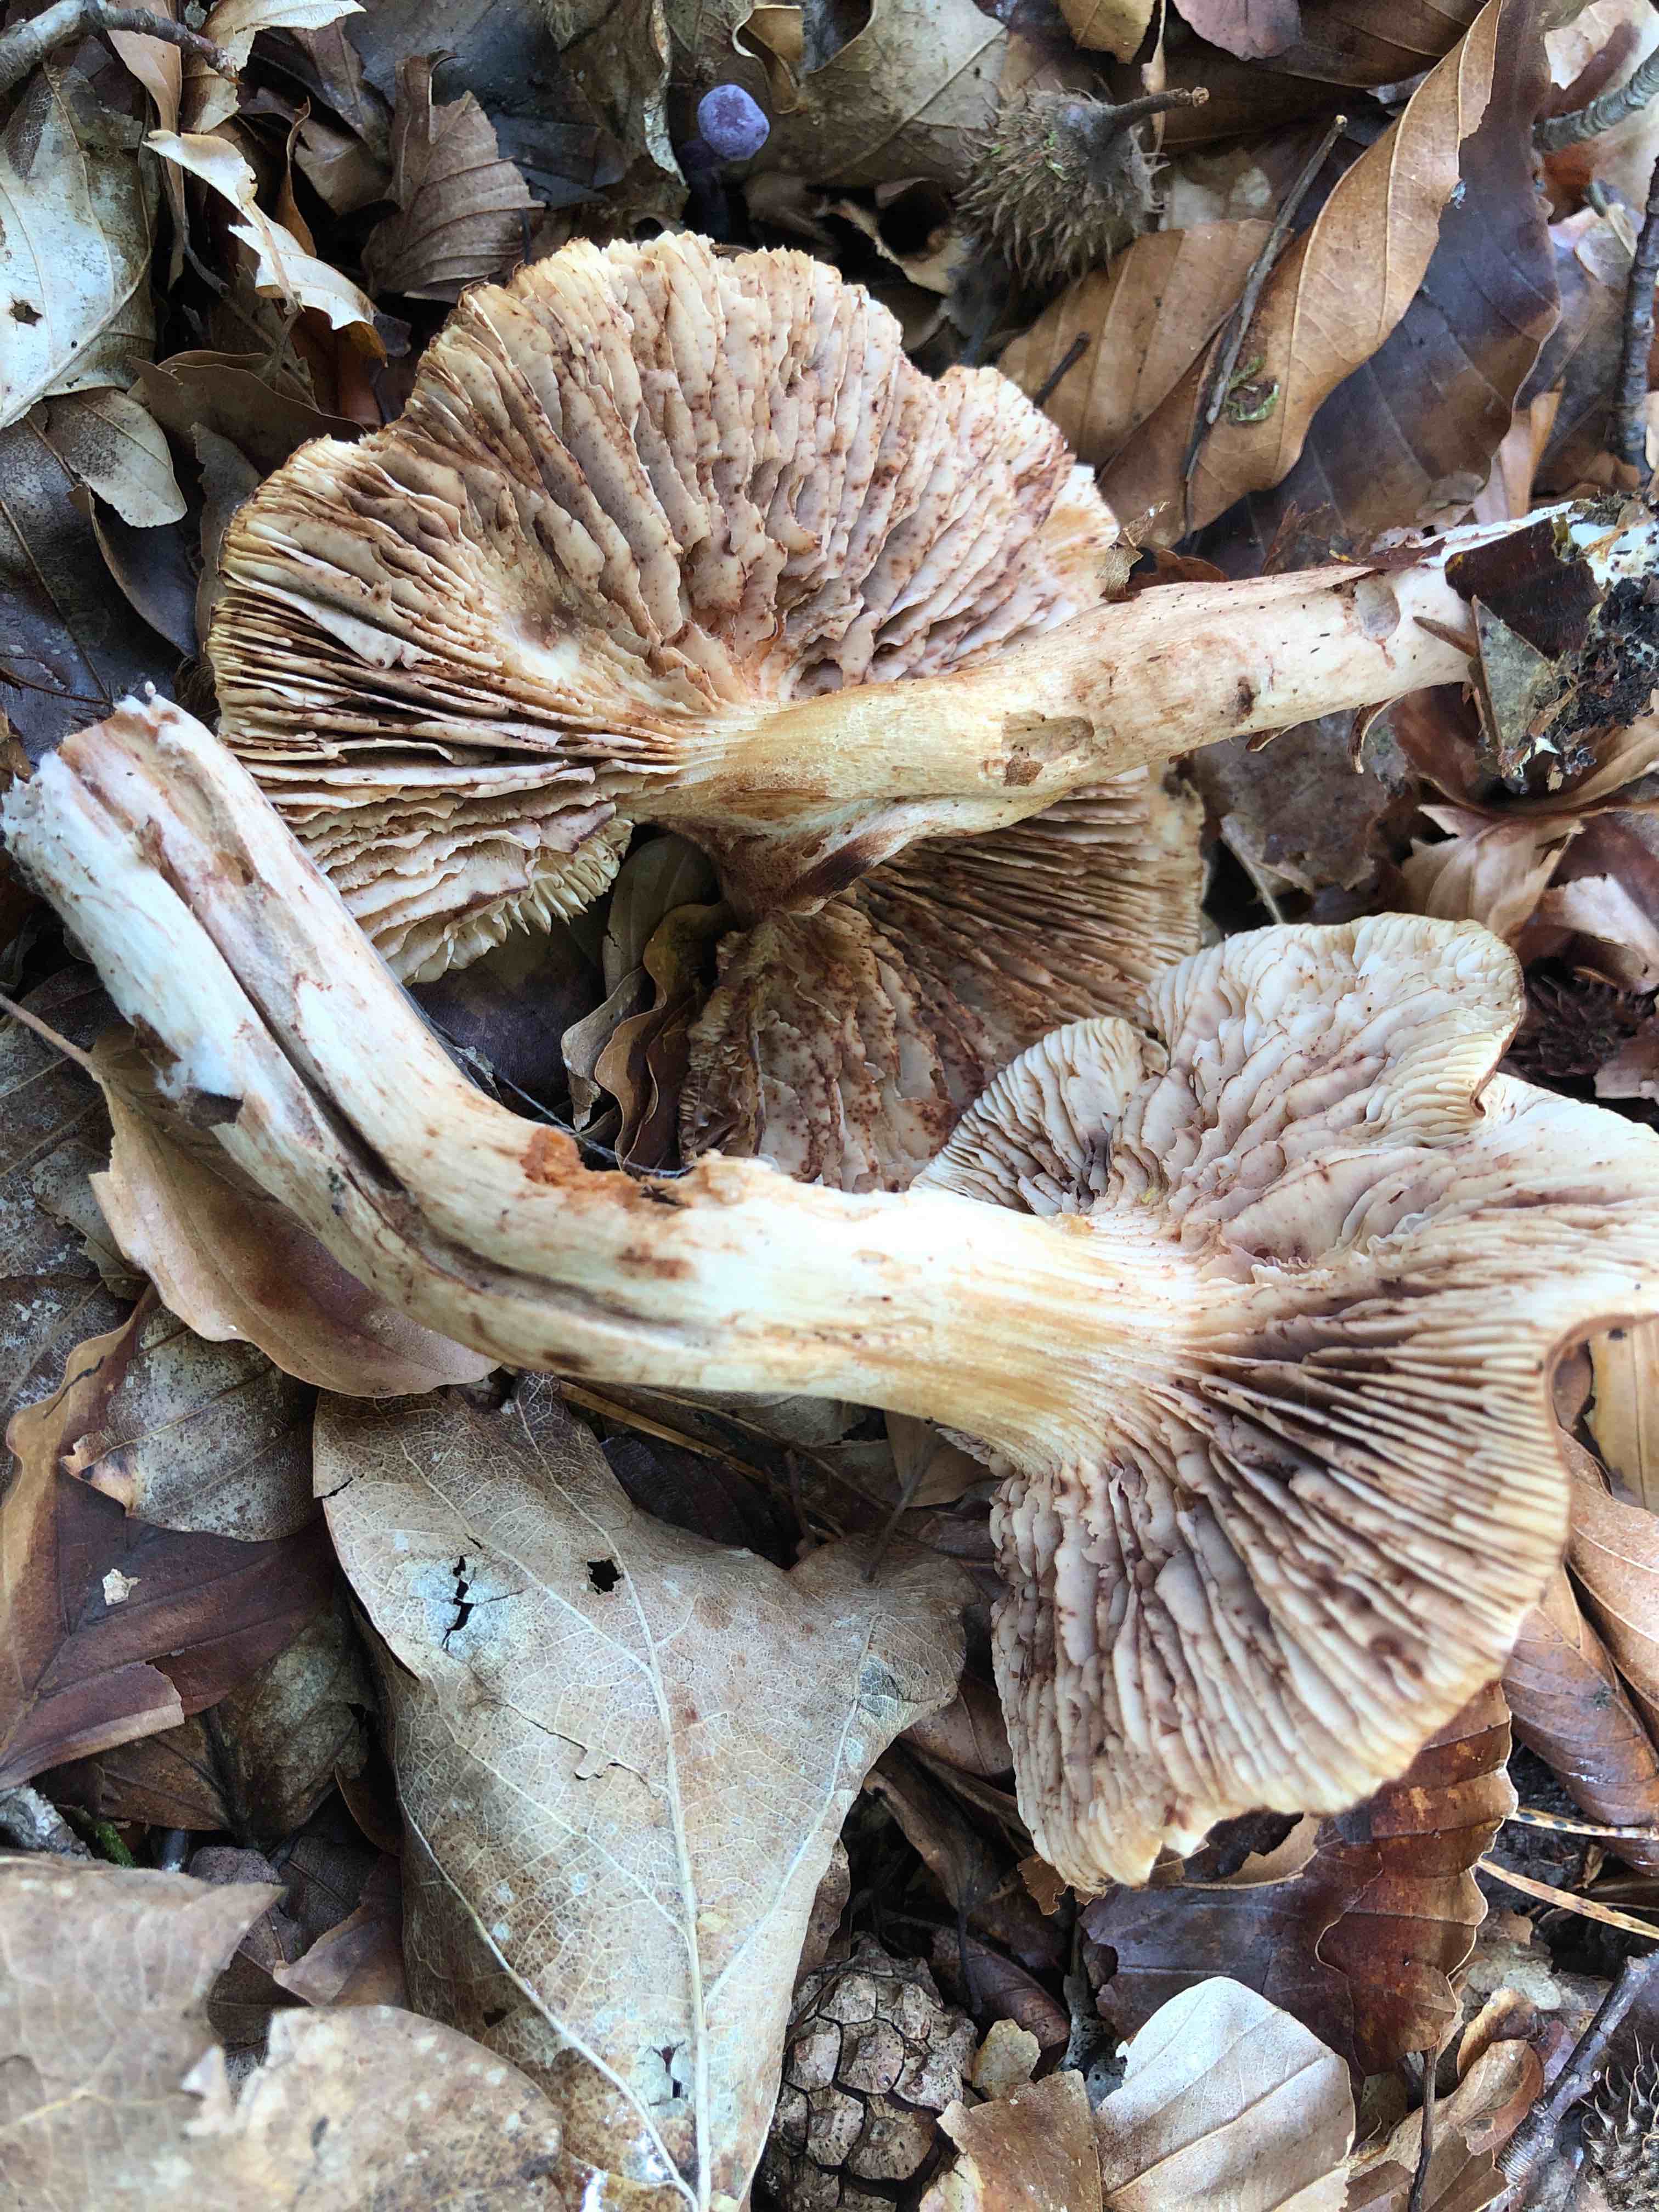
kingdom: Fungi
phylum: Basidiomycota
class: Agaricomycetes
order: Agaricales
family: Tricholomataceae
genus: Tricholoma
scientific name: Tricholoma ustale
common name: sveden ridderhat
